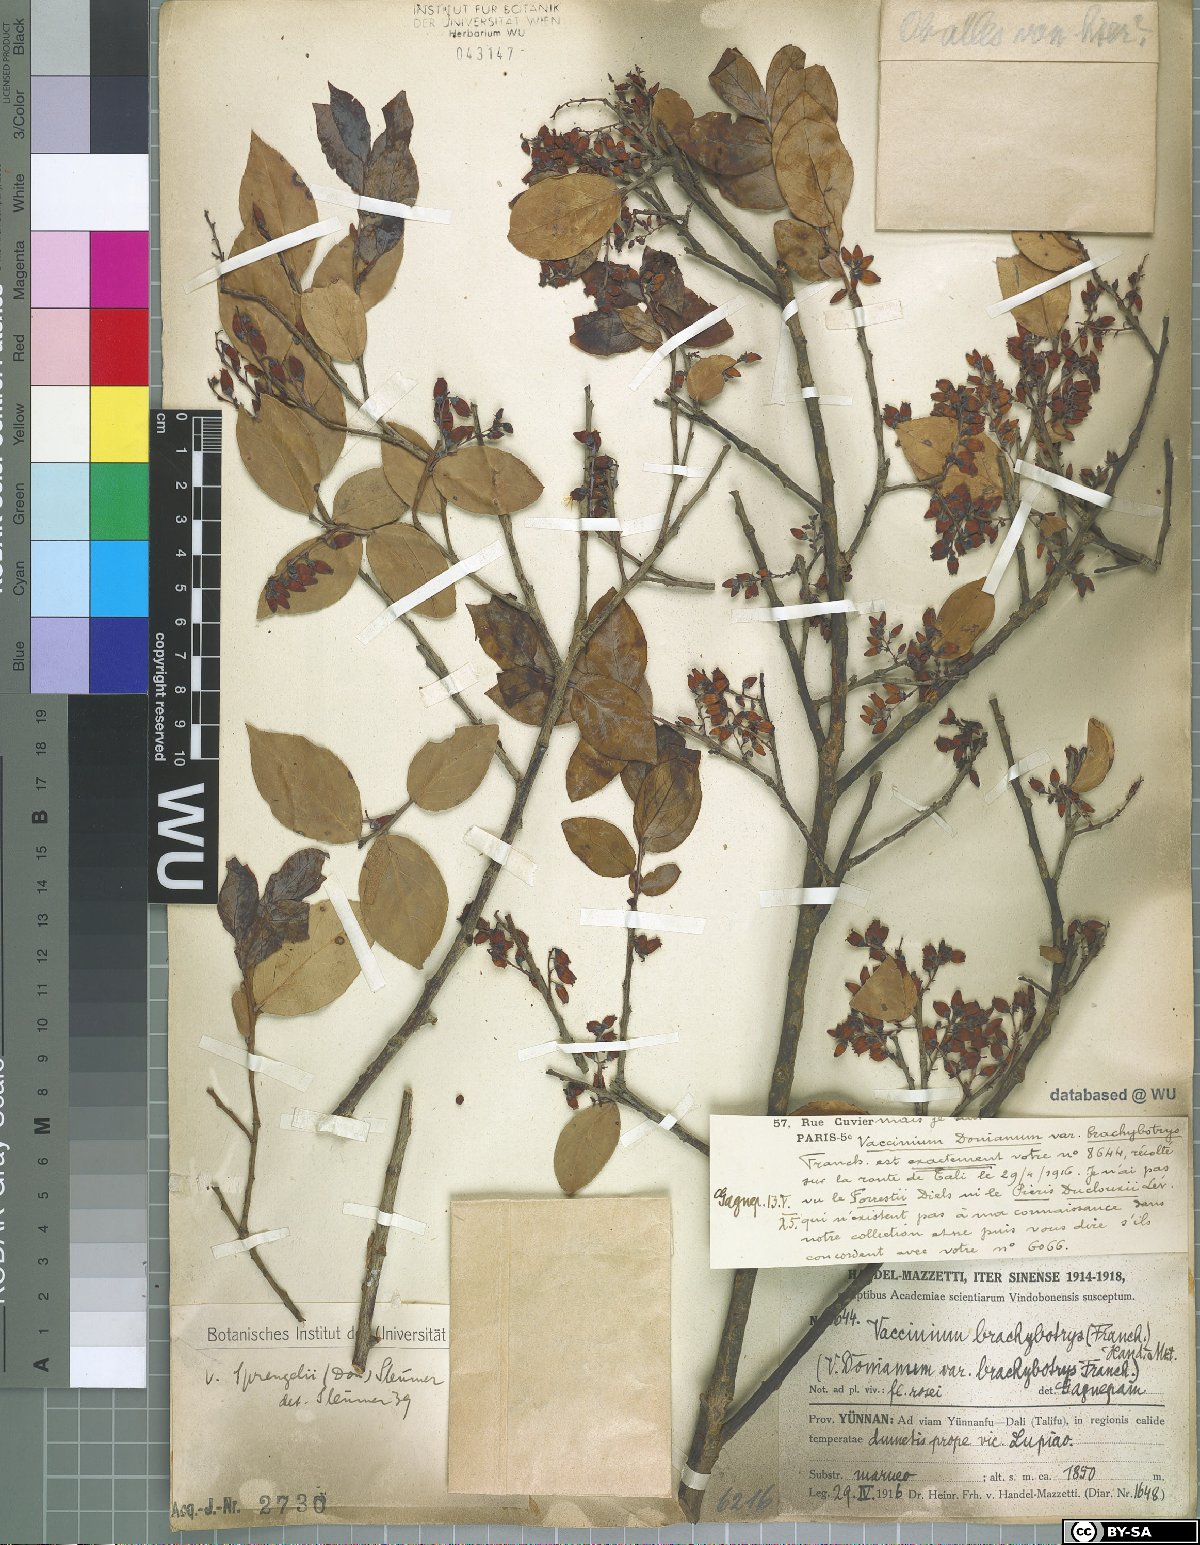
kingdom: Plantae
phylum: Tracheophyta
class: Magnoliopsida
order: Ericales
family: Ericaceae
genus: Vaccinium
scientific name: Vaccinium sprengelii
